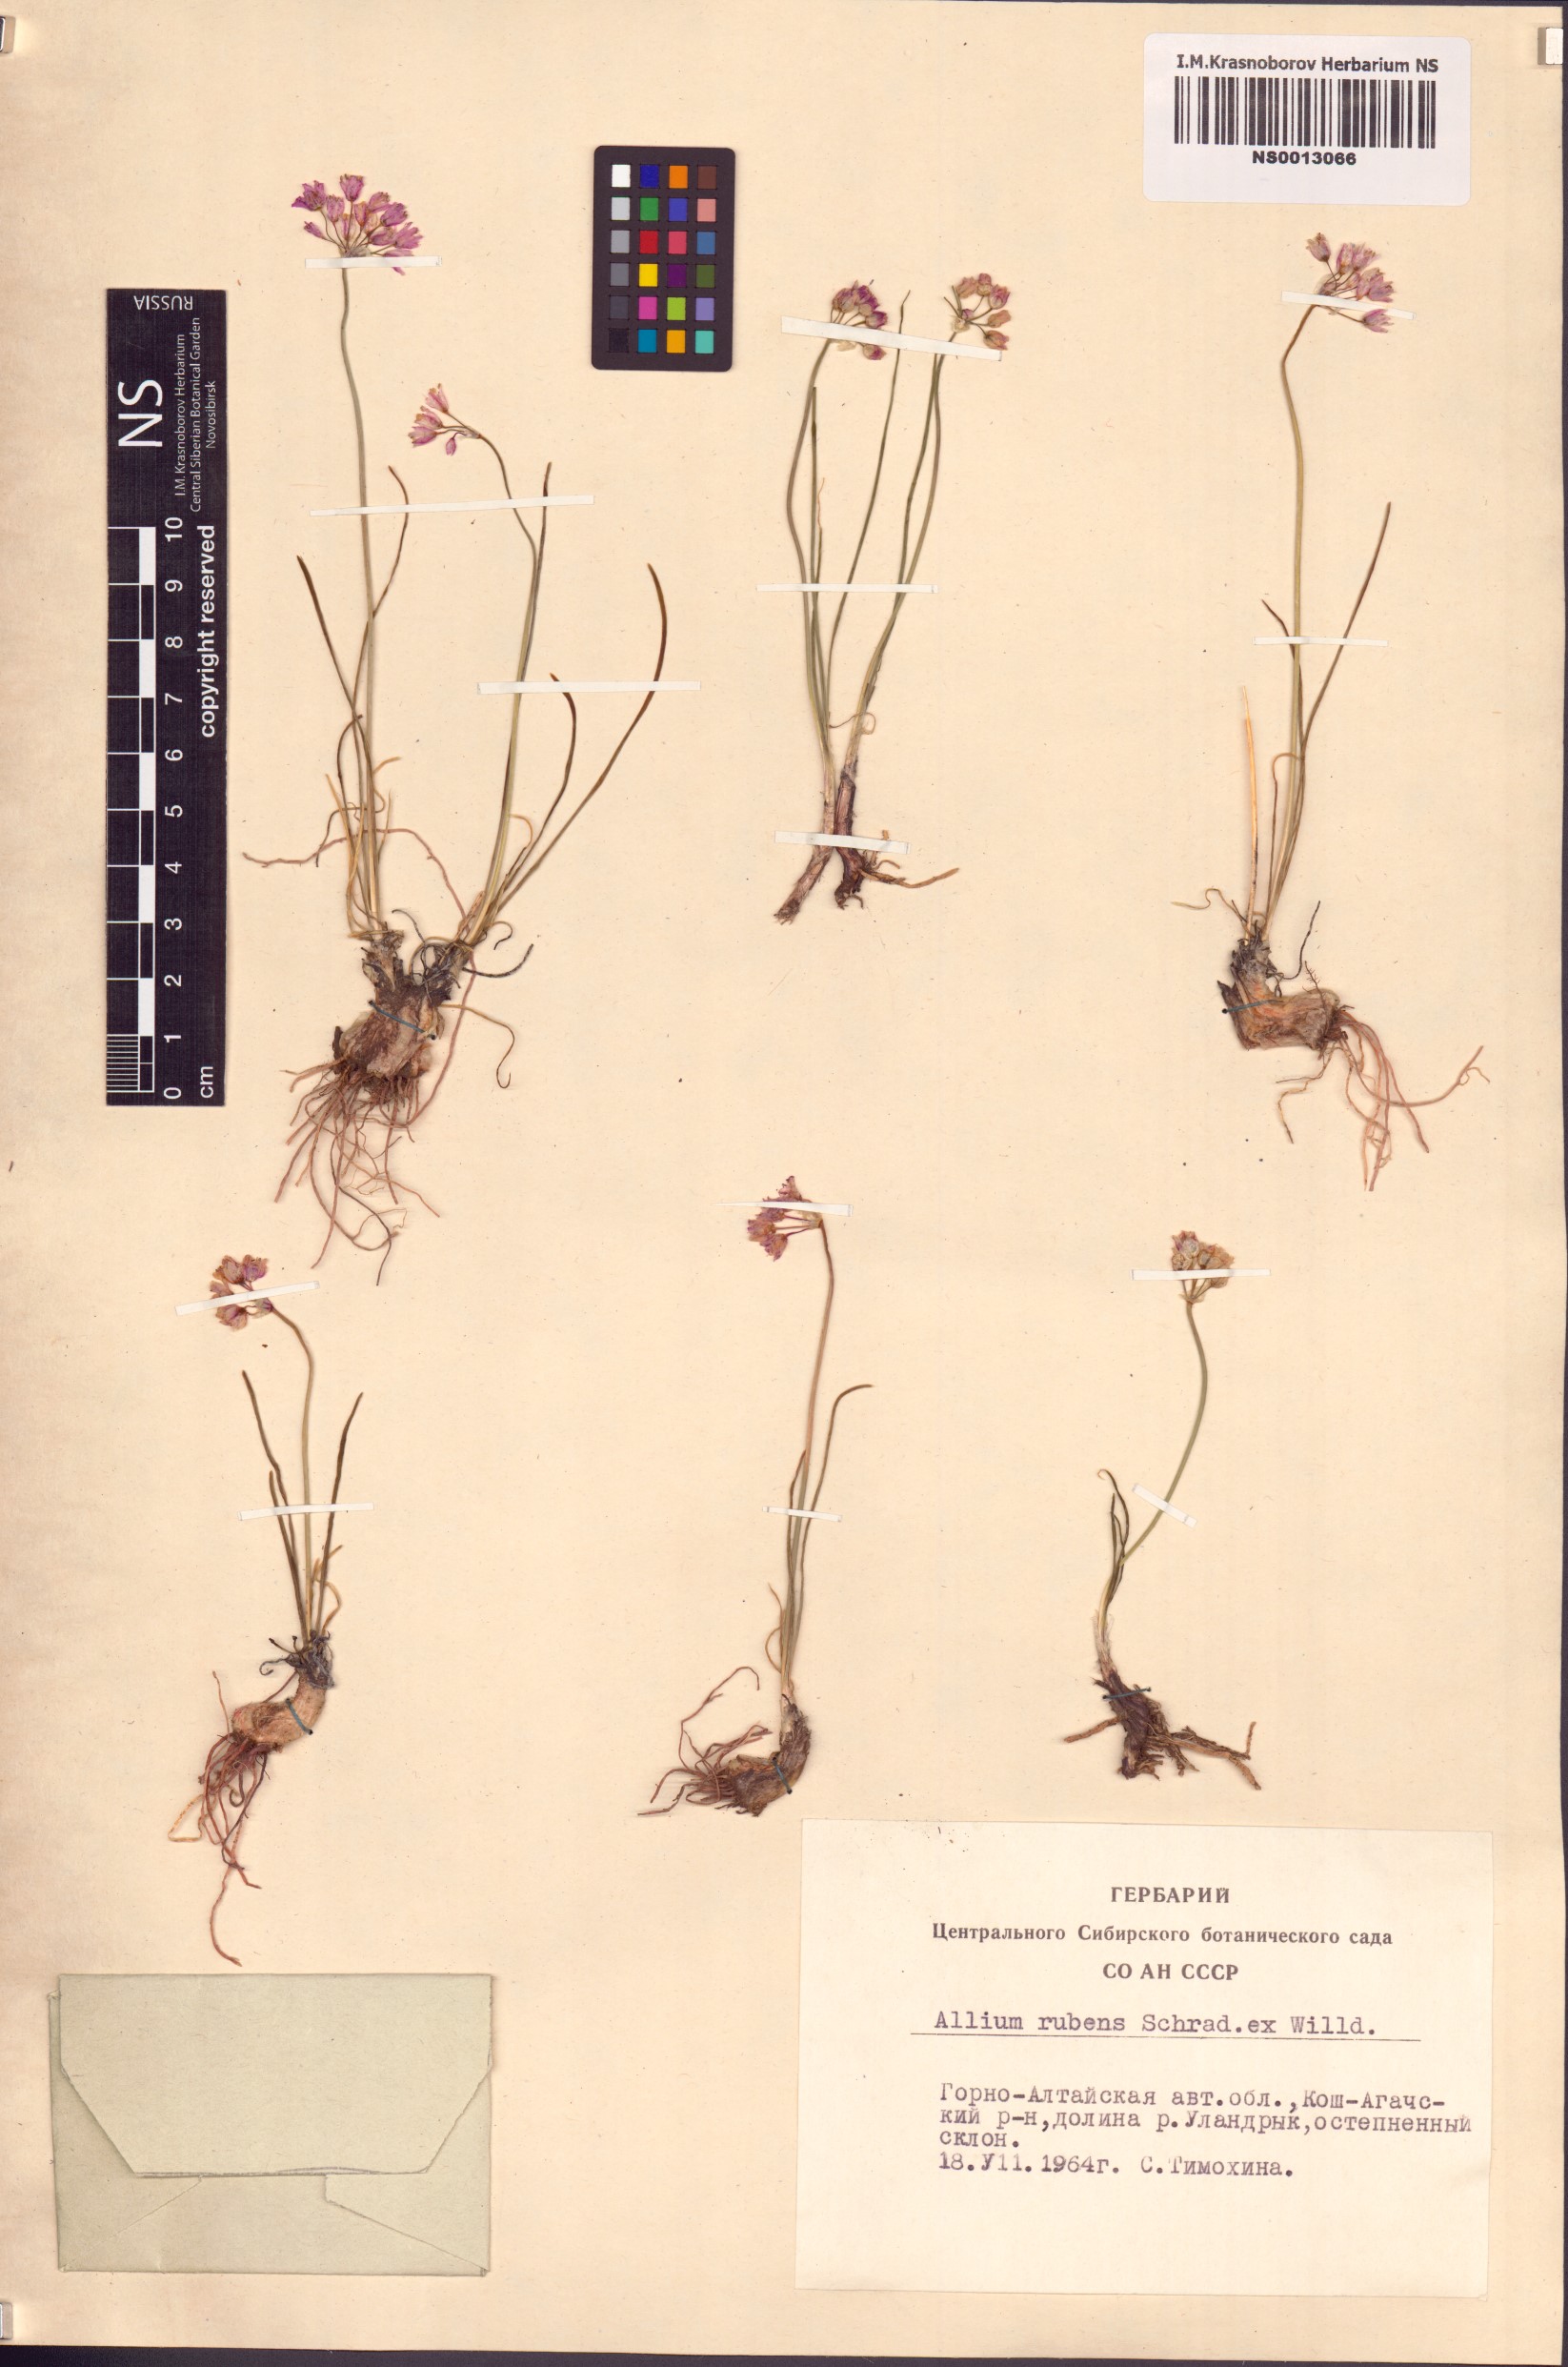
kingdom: Plantae
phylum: Tracheophyta
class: Liliopsida
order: Asparagales
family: Amaryllidaceae
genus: Allium
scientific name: Allium rubens
